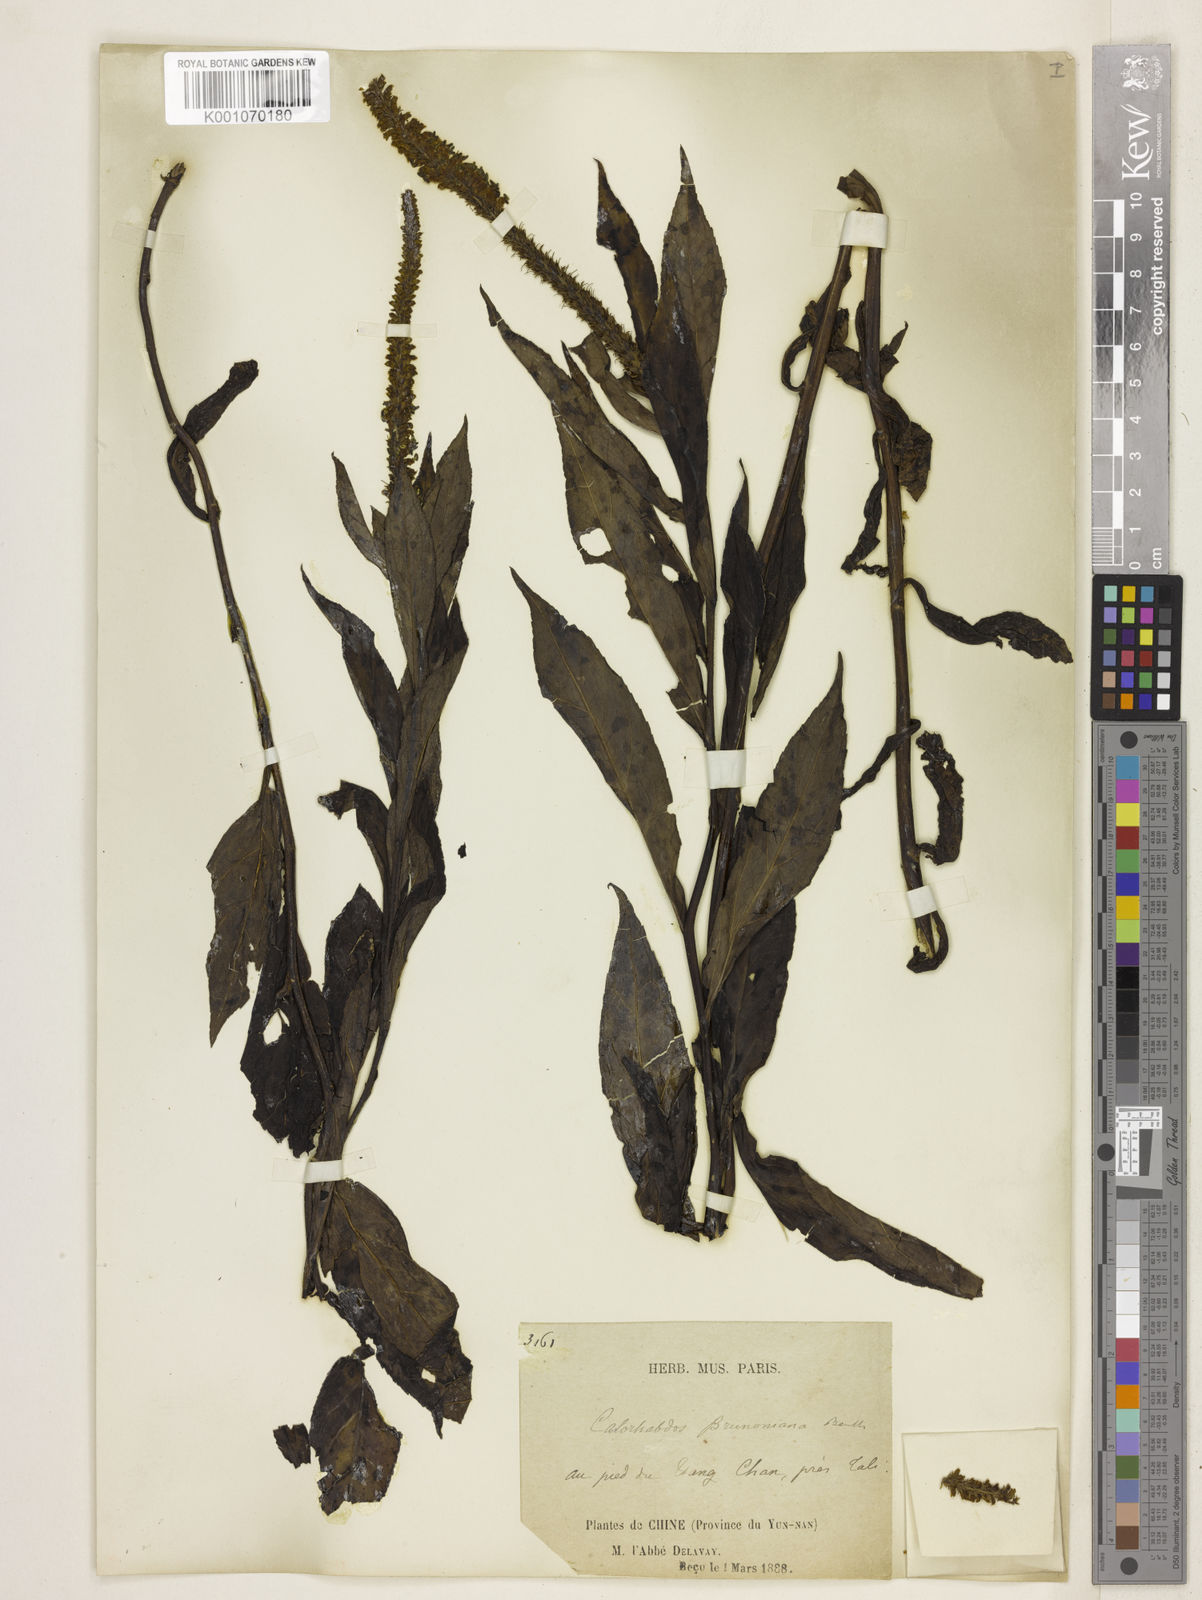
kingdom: Plantae
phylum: Tracheophyta
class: Magnoliopsida
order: Lamiales
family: Plantaginaceae
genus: Veronicastrum
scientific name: Veronicastrum brunonianum
